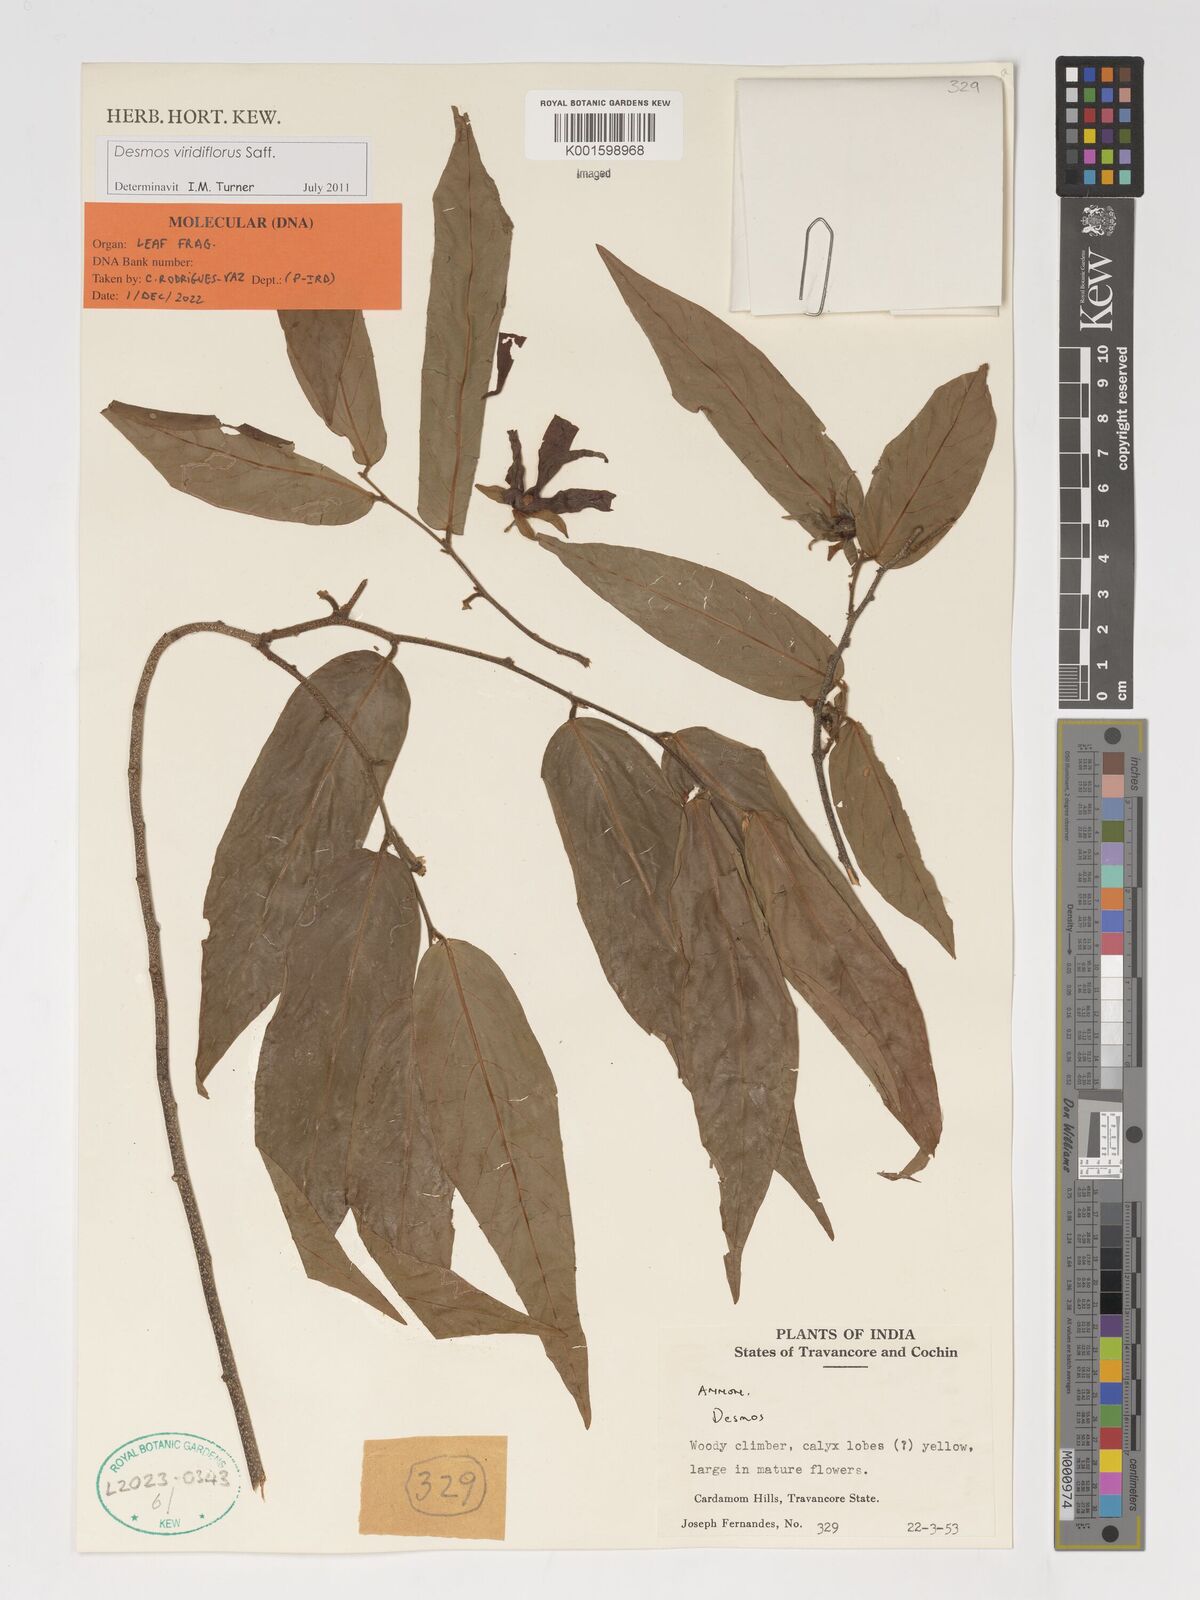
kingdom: Plantae
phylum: Tracheophyta
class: Magnoliopsida
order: Magnoliales
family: Annonaceae
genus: Desmos
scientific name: Desmos viridiflorus
